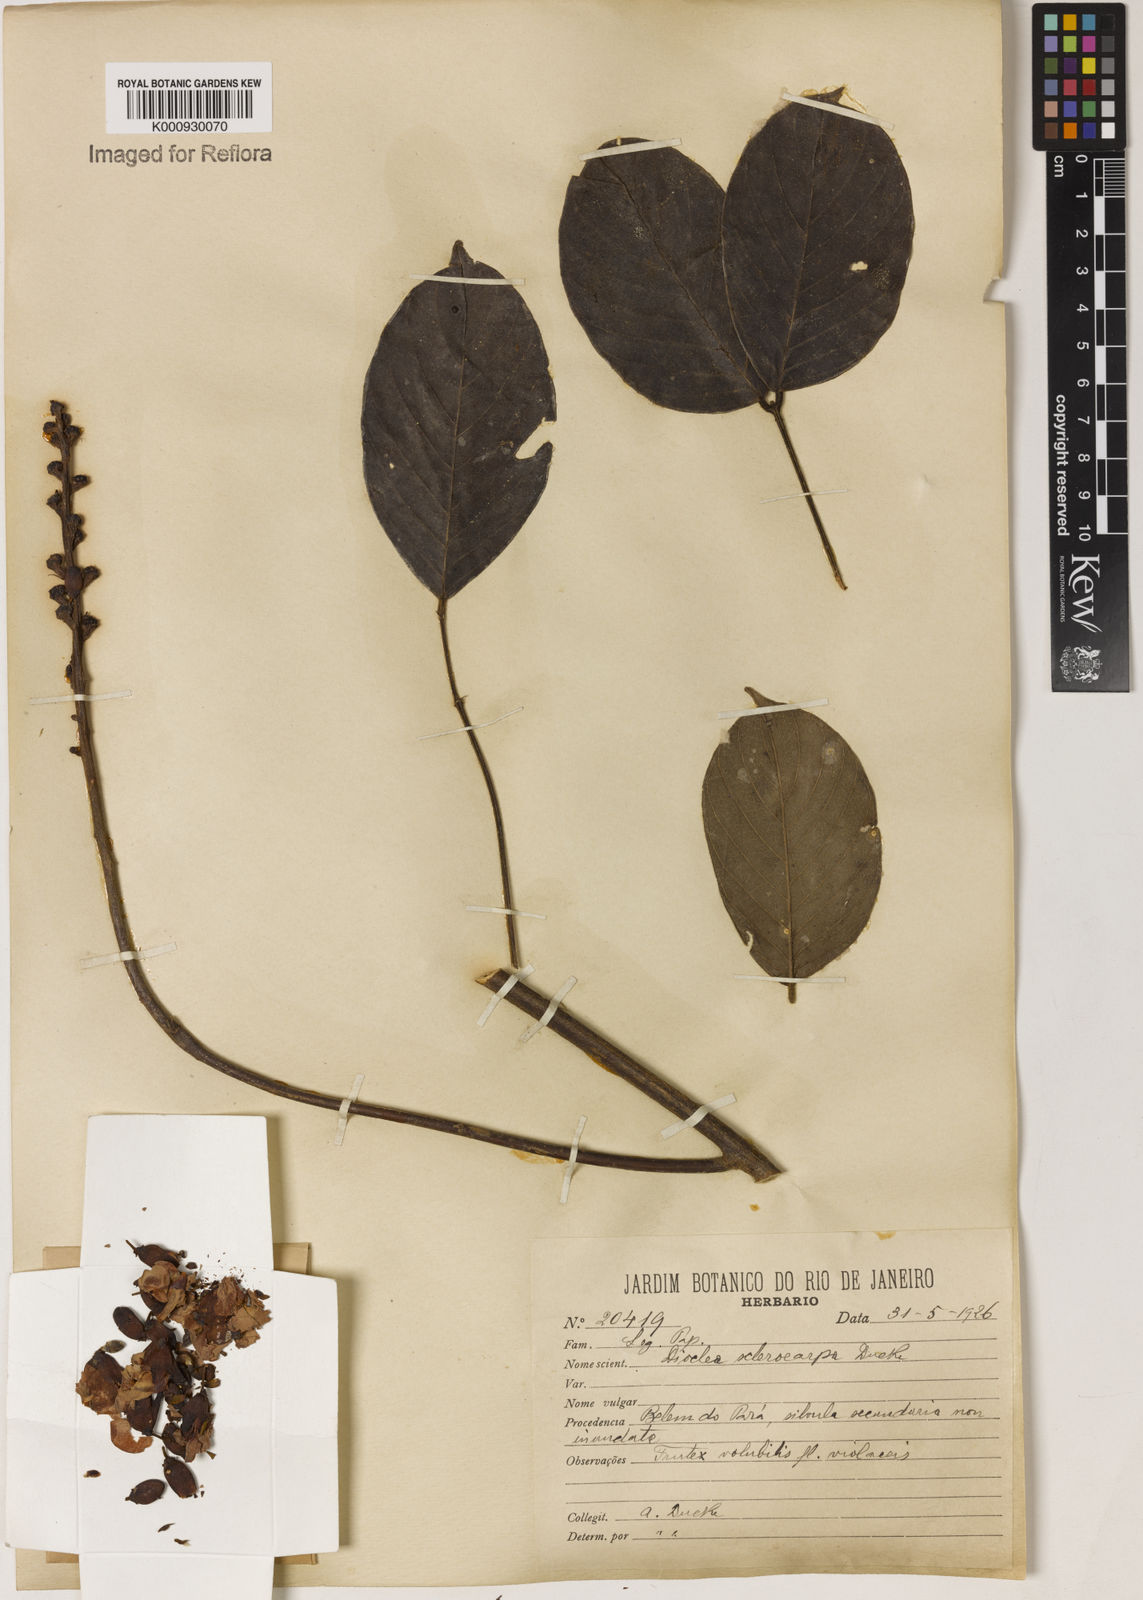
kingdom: Plantae
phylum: Tracheophyta
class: Magnoliopsida
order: Fabales
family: Fabaceae
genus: Macropsychanthus
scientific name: Macropsychanthus sclerocarpus
